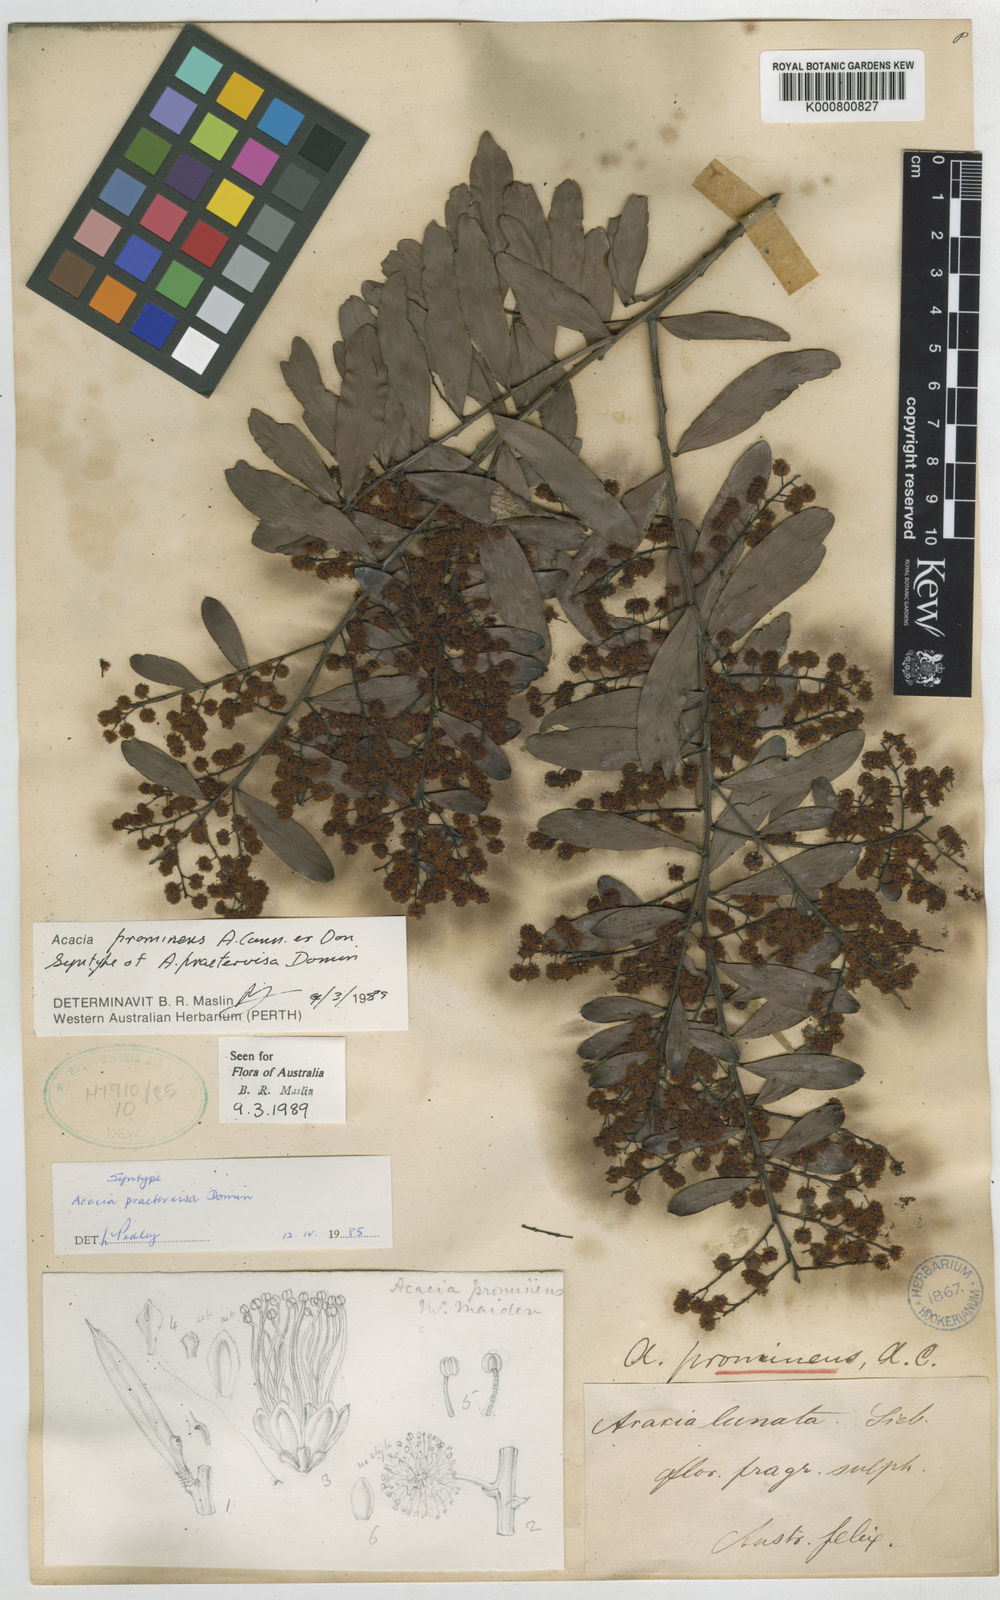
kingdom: Plantae
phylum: Tracheophyta
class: Magnoliopsida
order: Fabales
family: Fabaceae
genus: Acacia
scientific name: Acacia prominens
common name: Gosford wattle
